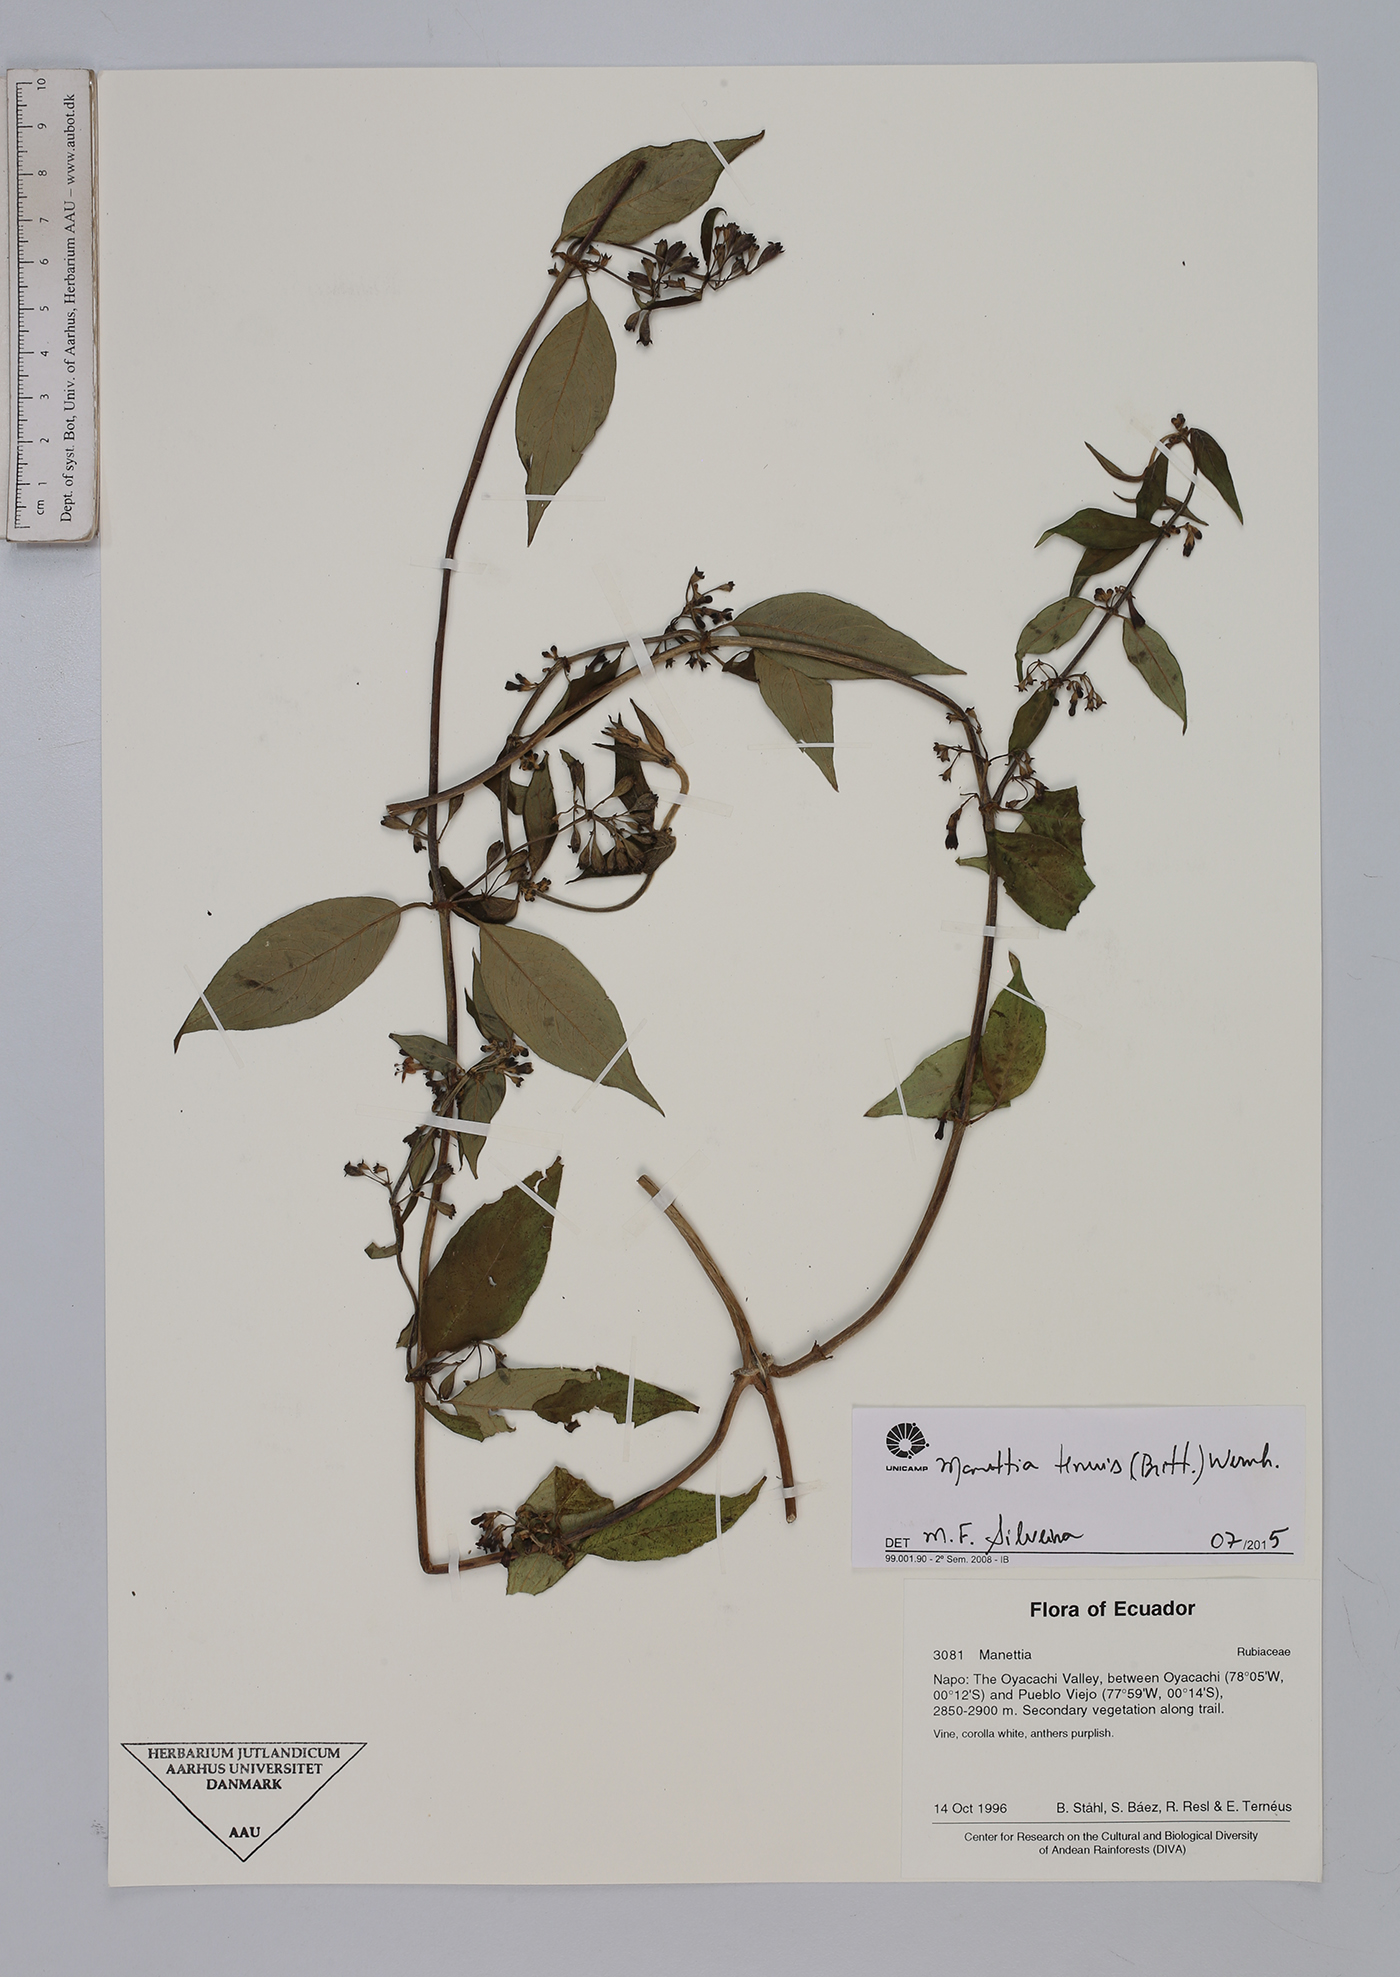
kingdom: Plantae
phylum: Tracheophyta
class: Magnoliopsida
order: Gentianales
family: Rubiaceae
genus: Manettia
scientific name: Manettia tenuis
